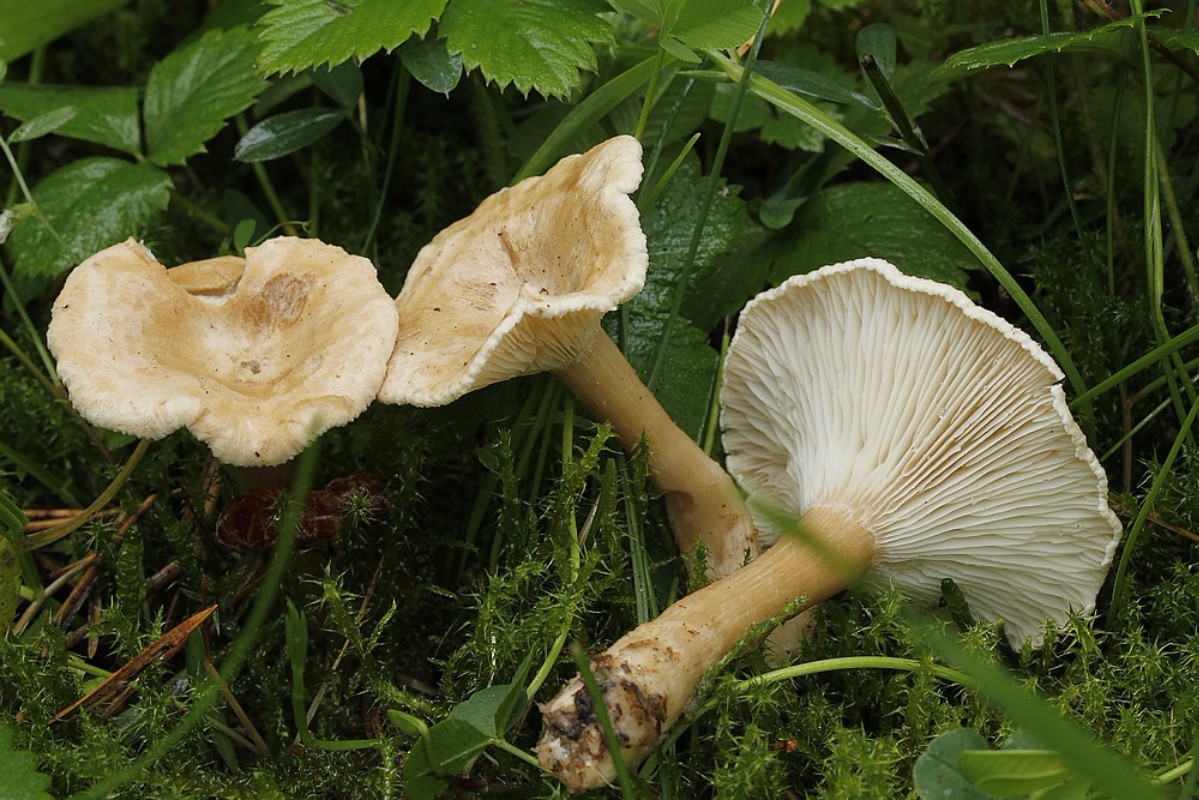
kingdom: Fungi
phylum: Basidiomycota
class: Agaricomycetes
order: Agaricales
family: Tricholomataceae
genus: Clitocybe
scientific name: Clitocybe costata
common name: brunstokket tragthat
